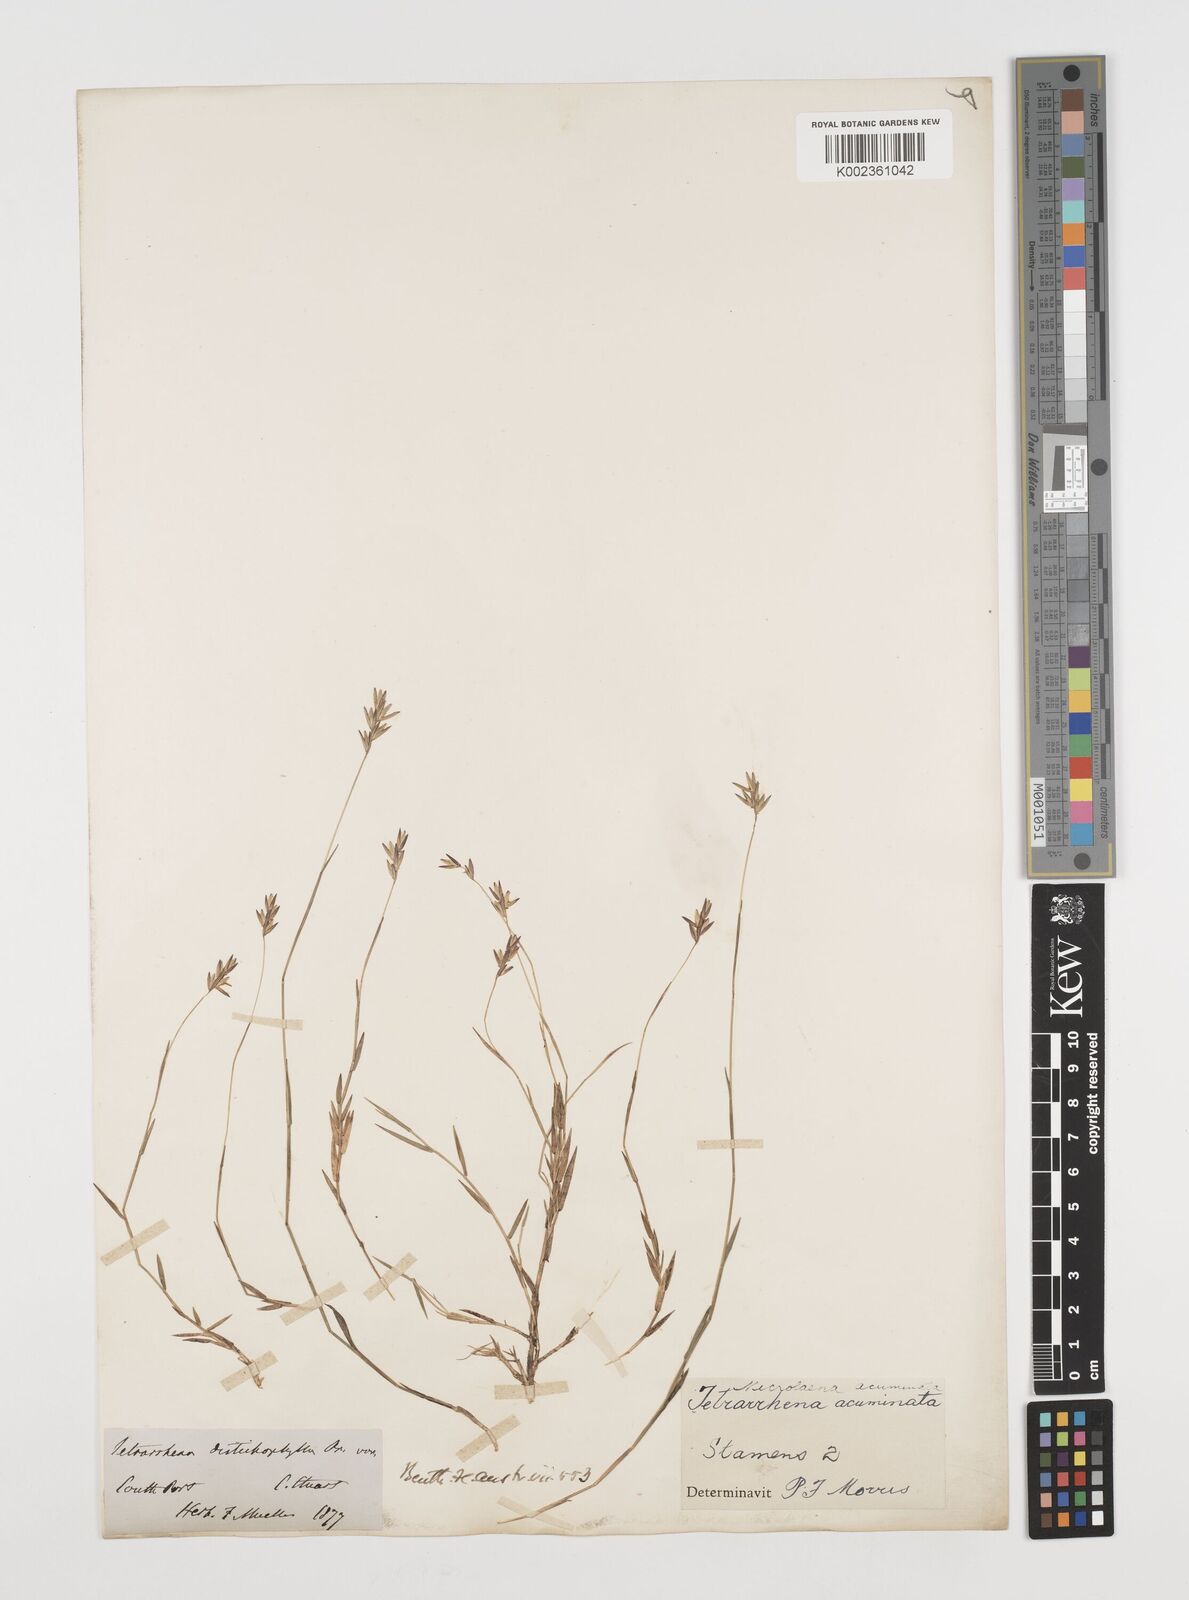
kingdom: Plantae
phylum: Tracheophyta
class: Liliopsida
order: Poales
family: Poaceae
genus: Tetrarrhena
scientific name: Tetrarrhena acuminata
